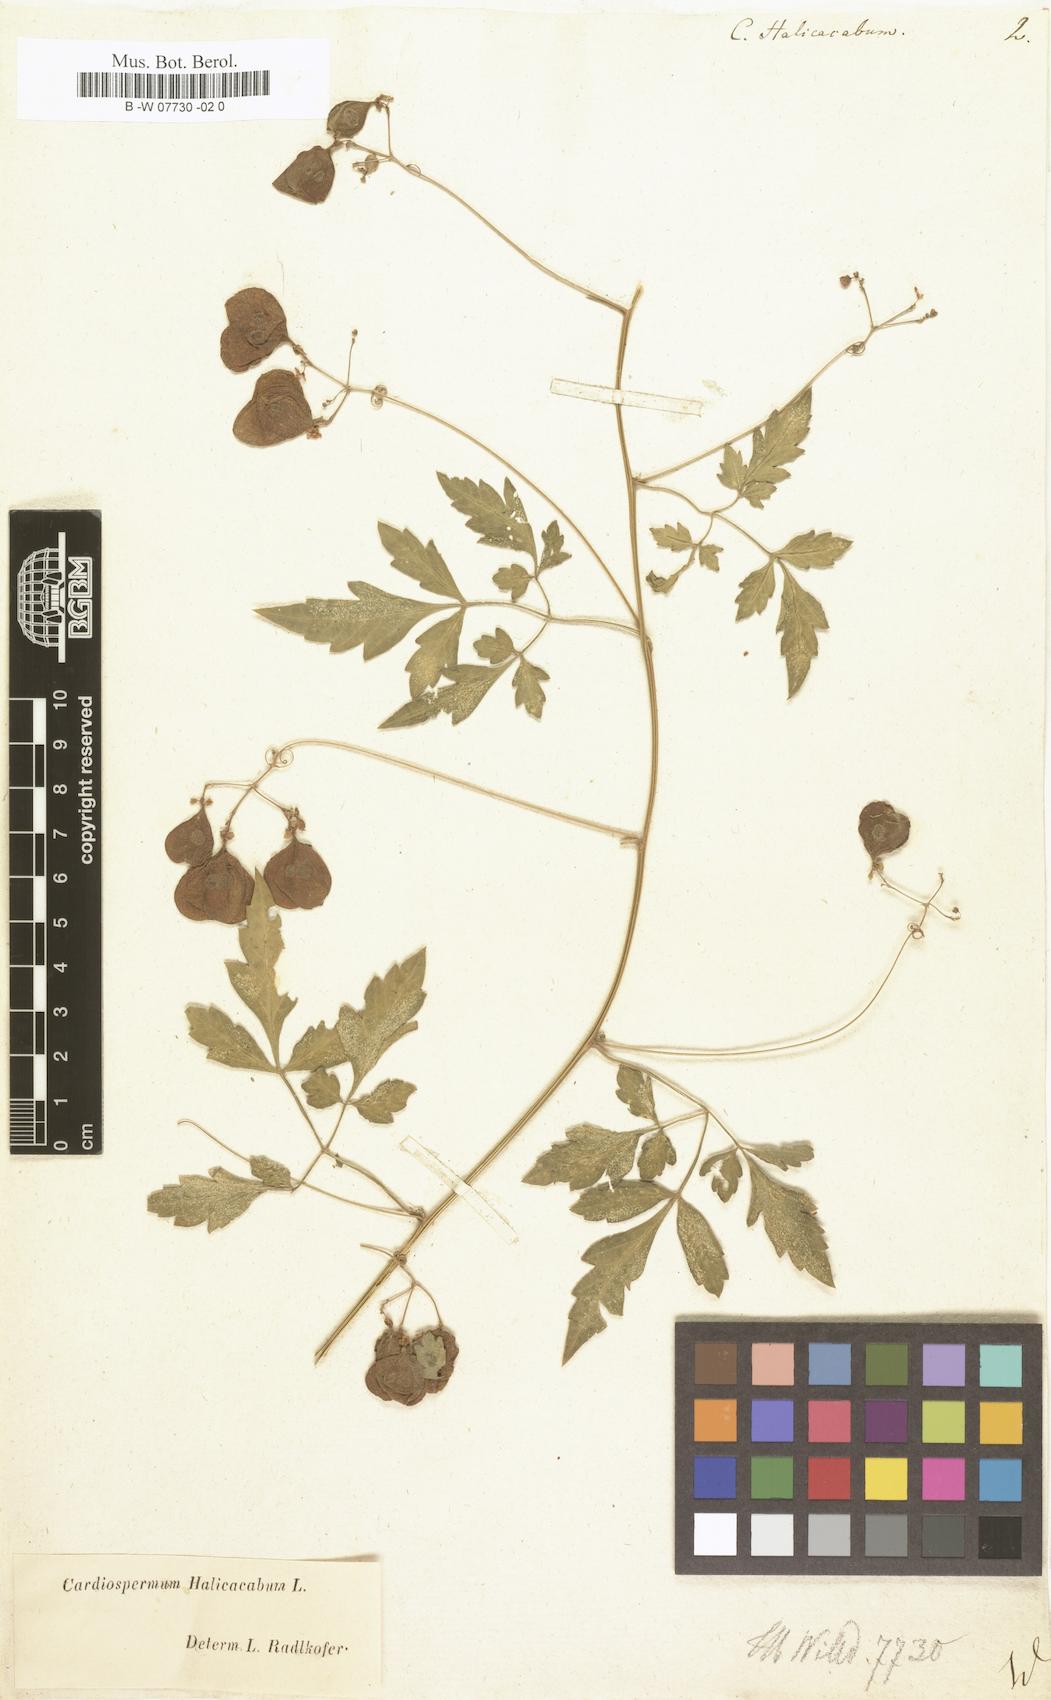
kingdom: Plantae
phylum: Tracheophyta
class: Magnoliopsida
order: Sapindales
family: Sapindaceae
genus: Cardiospermum
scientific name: Cardiospermum halicacabum
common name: Balloon vine
